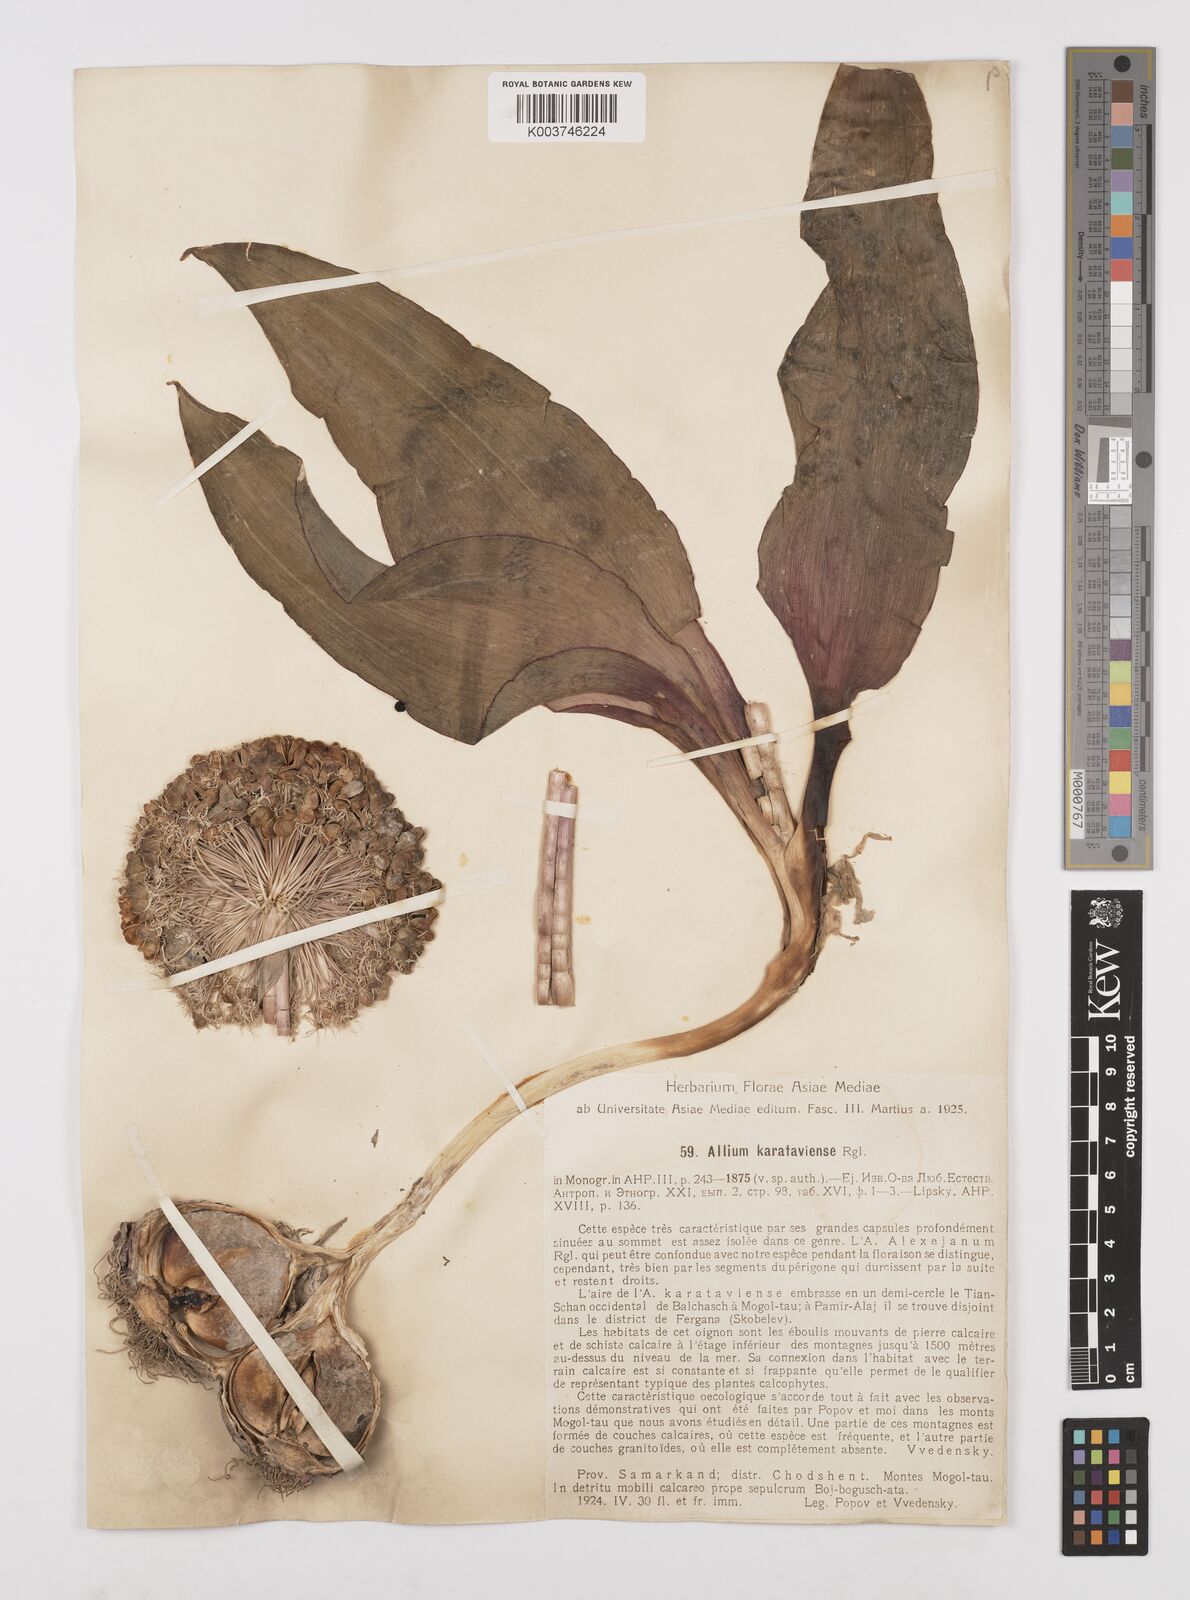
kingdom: Plantae
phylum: Tracheophyta
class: Liliopsida
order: Asparagales
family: Amaryllidaceae
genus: Allium
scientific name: Allium karataviense
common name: Turkestan onion
